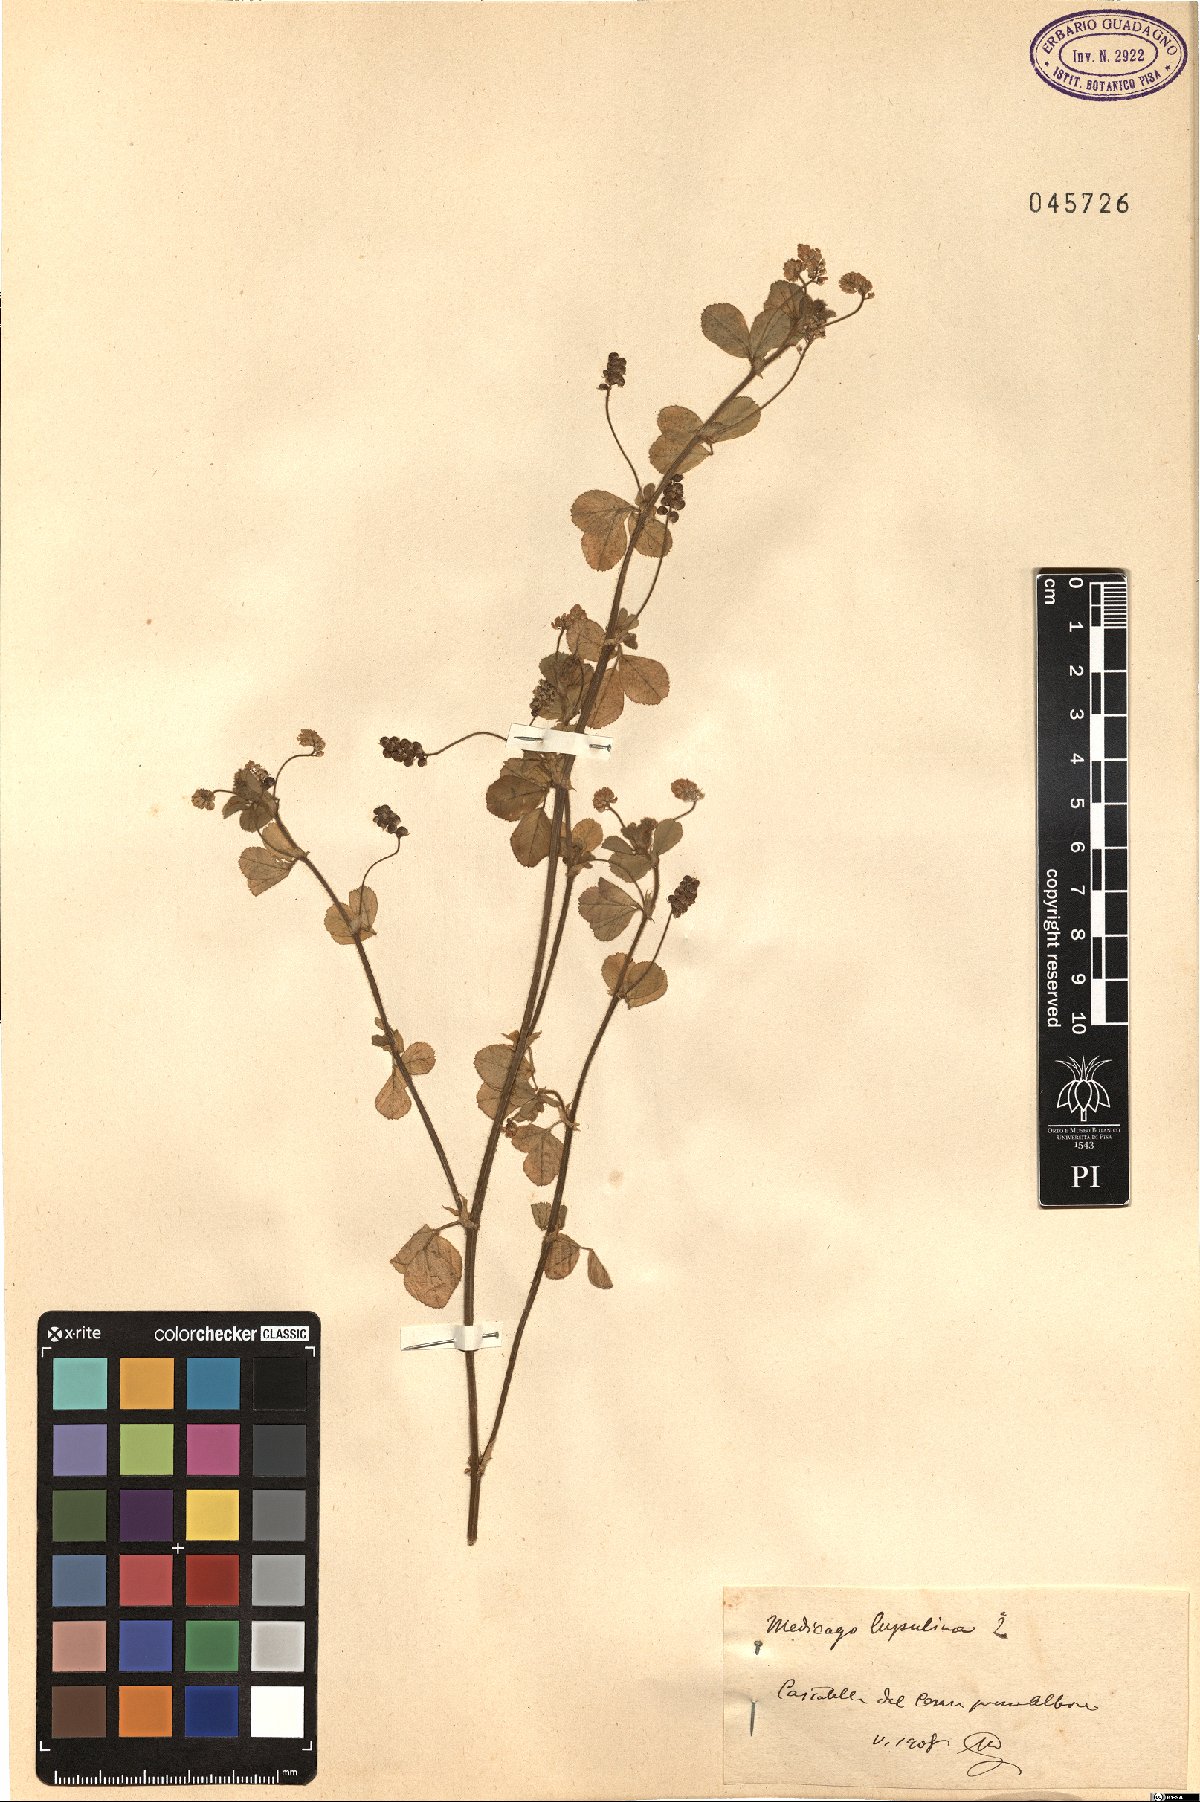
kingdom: Plantae
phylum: Tracheophyta
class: Magnoliopsida
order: Fabales
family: Fabaceae
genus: Medicago
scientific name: Medicago lupulina
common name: Black medick
